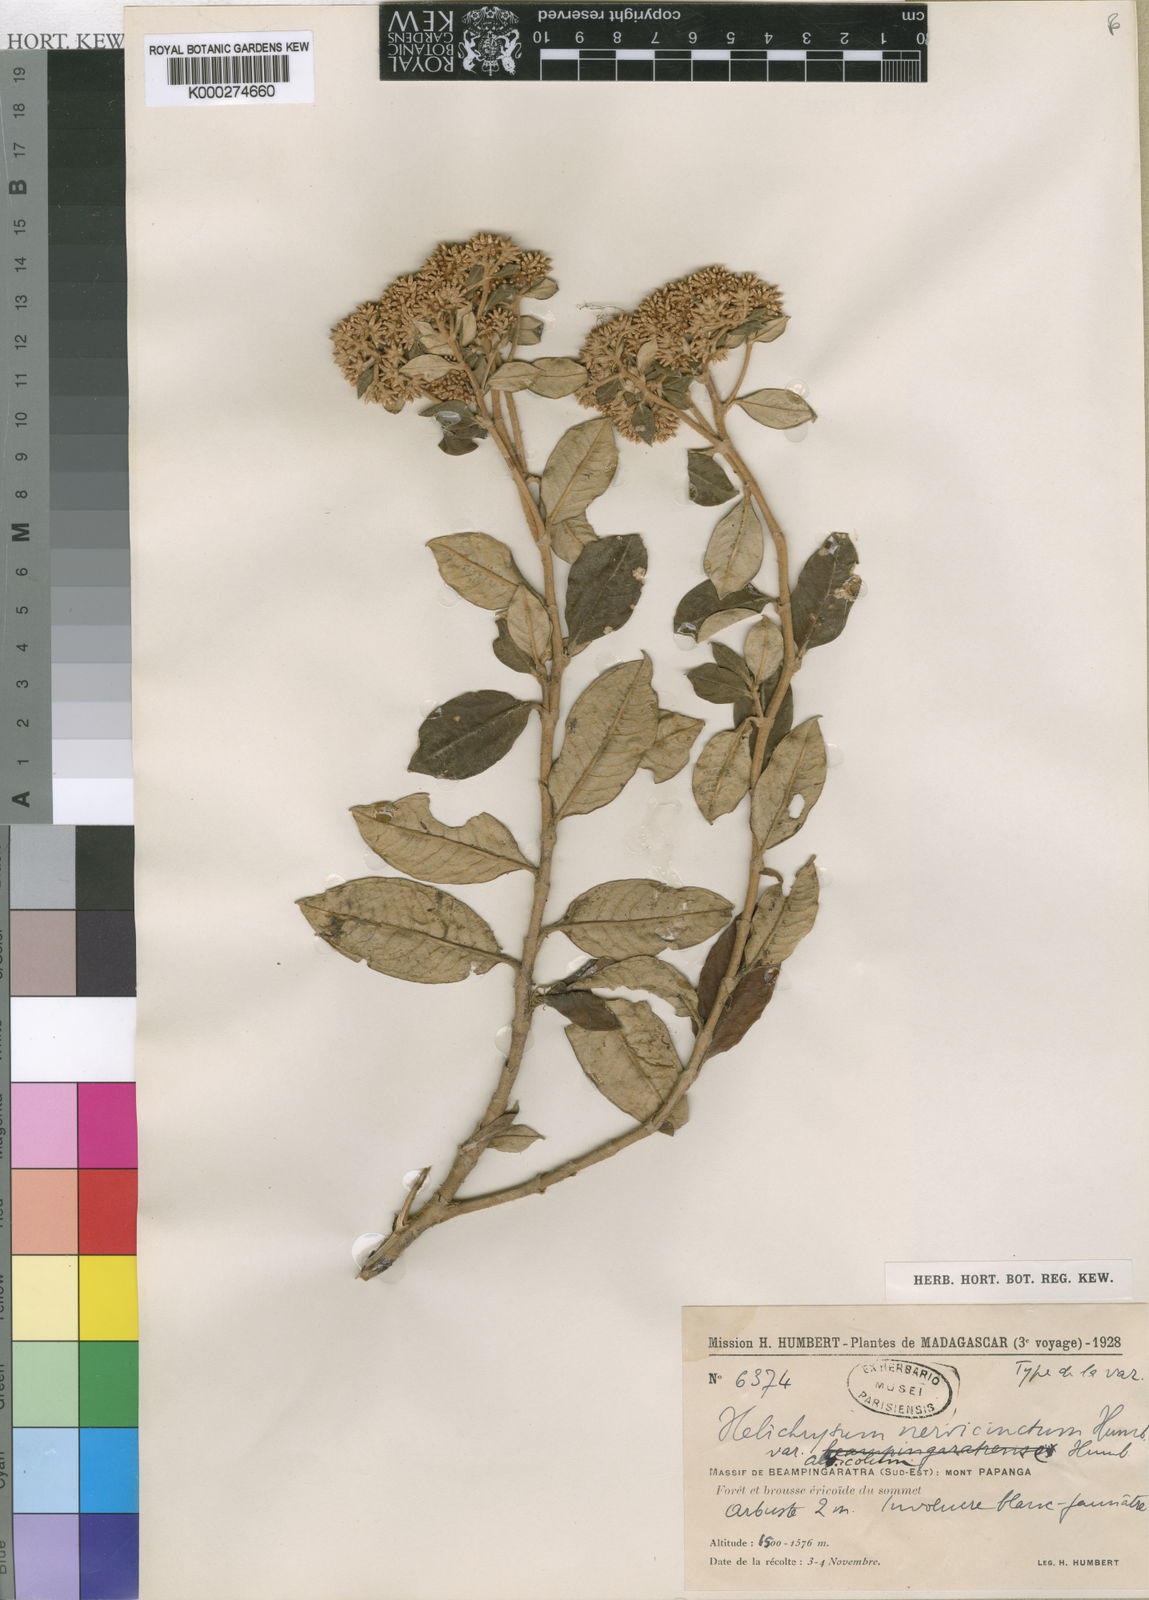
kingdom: Plantae
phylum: Tracheophyta
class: Magnoliopsida
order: Asterales
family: Asteraceae
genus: Helichrysum
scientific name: Helichrysum nervicinctum
